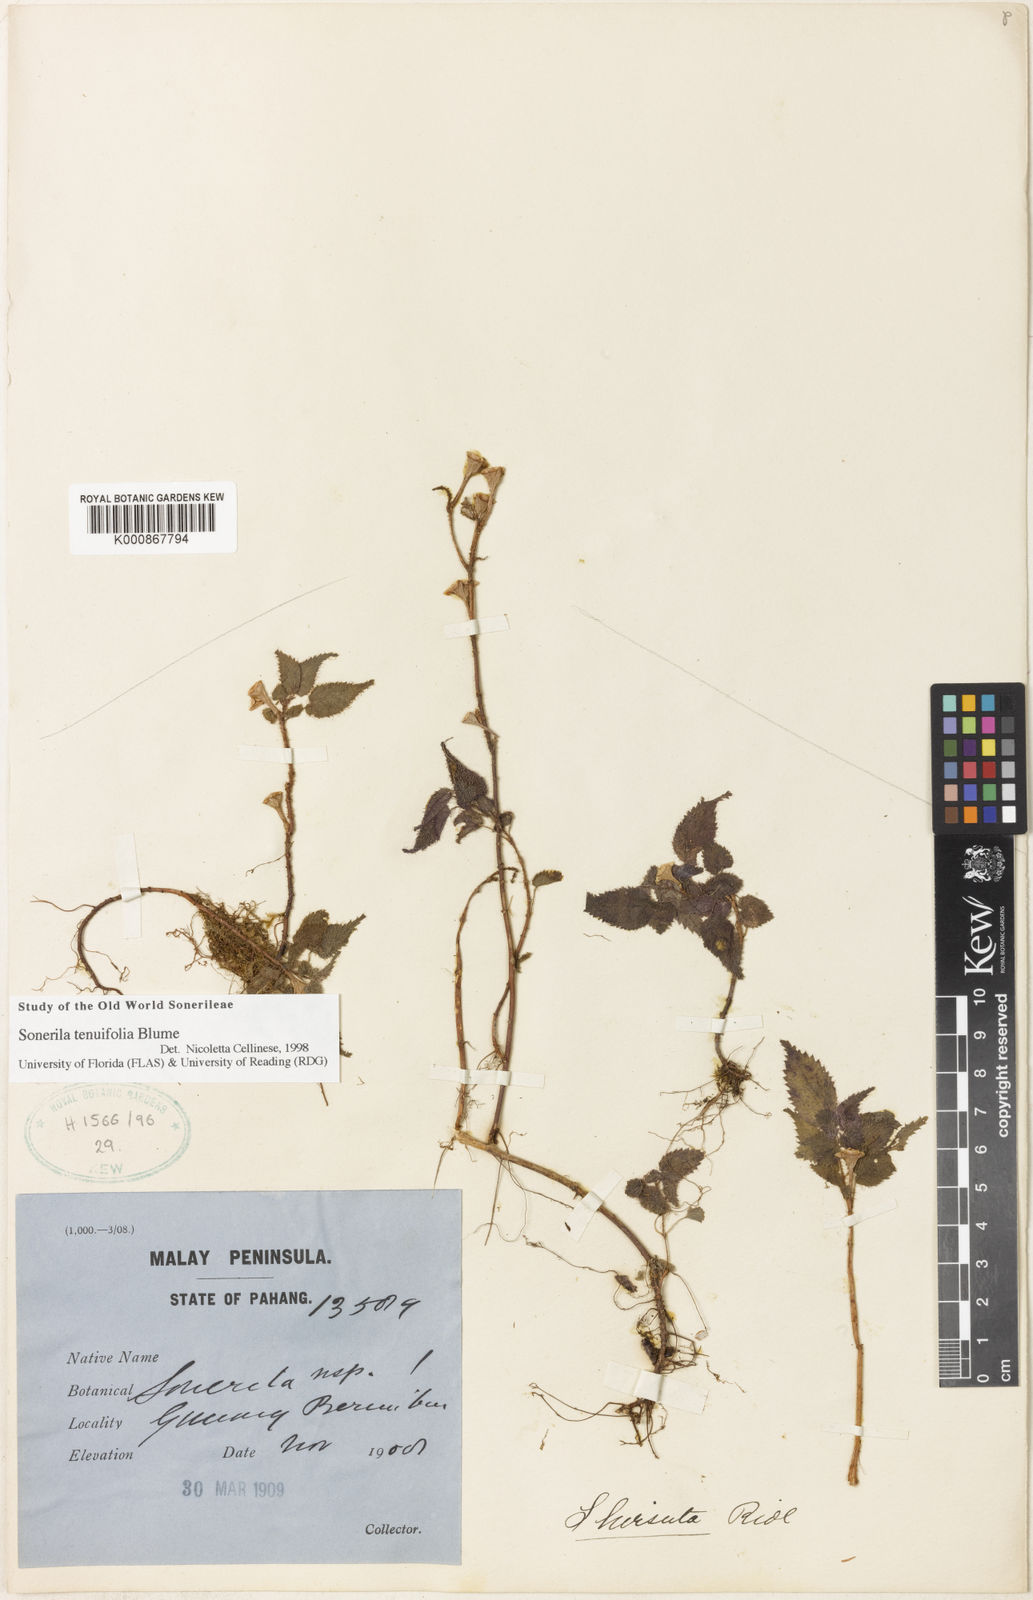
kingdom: Plantae
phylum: Tracheophyta
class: Magnoliopsida
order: Myrtales
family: Melastomataceae
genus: Sonerila
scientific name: Sonerila tenuifolia
